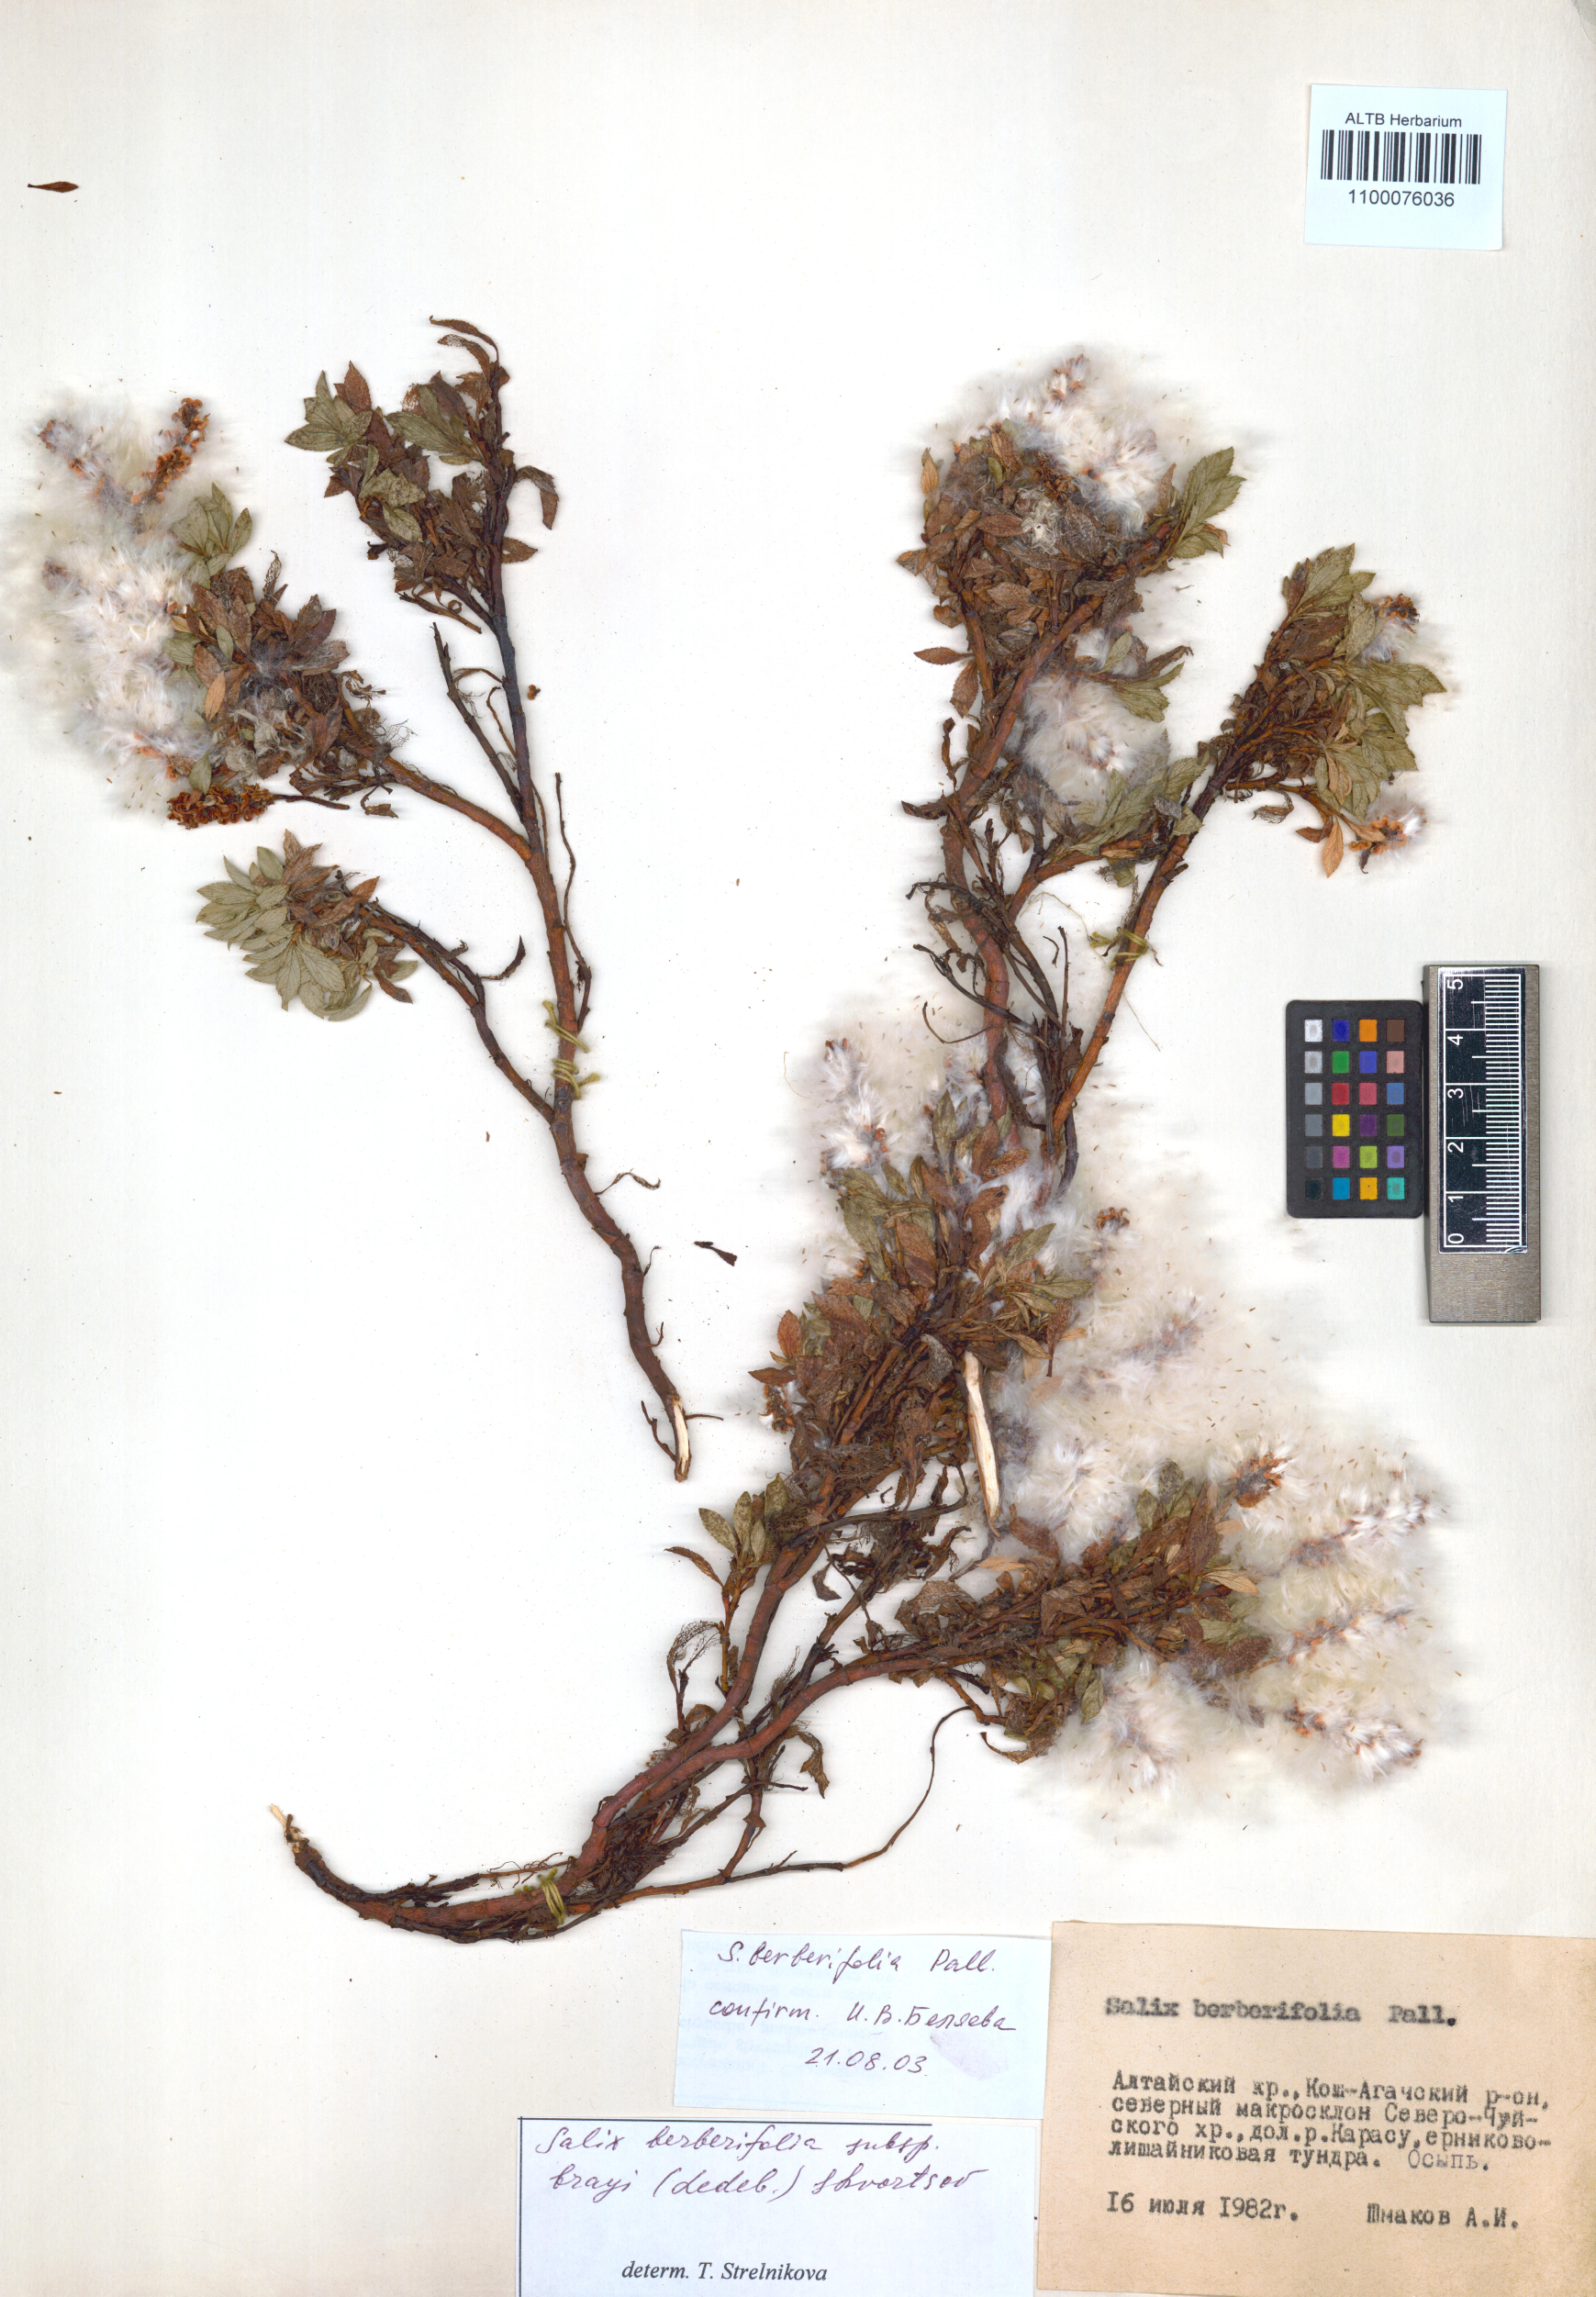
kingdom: Plantae
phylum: Tracheophyta
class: Magnoliopsida
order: Malpighiales
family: Salicaceae
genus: Salix
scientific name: Salix berberifolia
